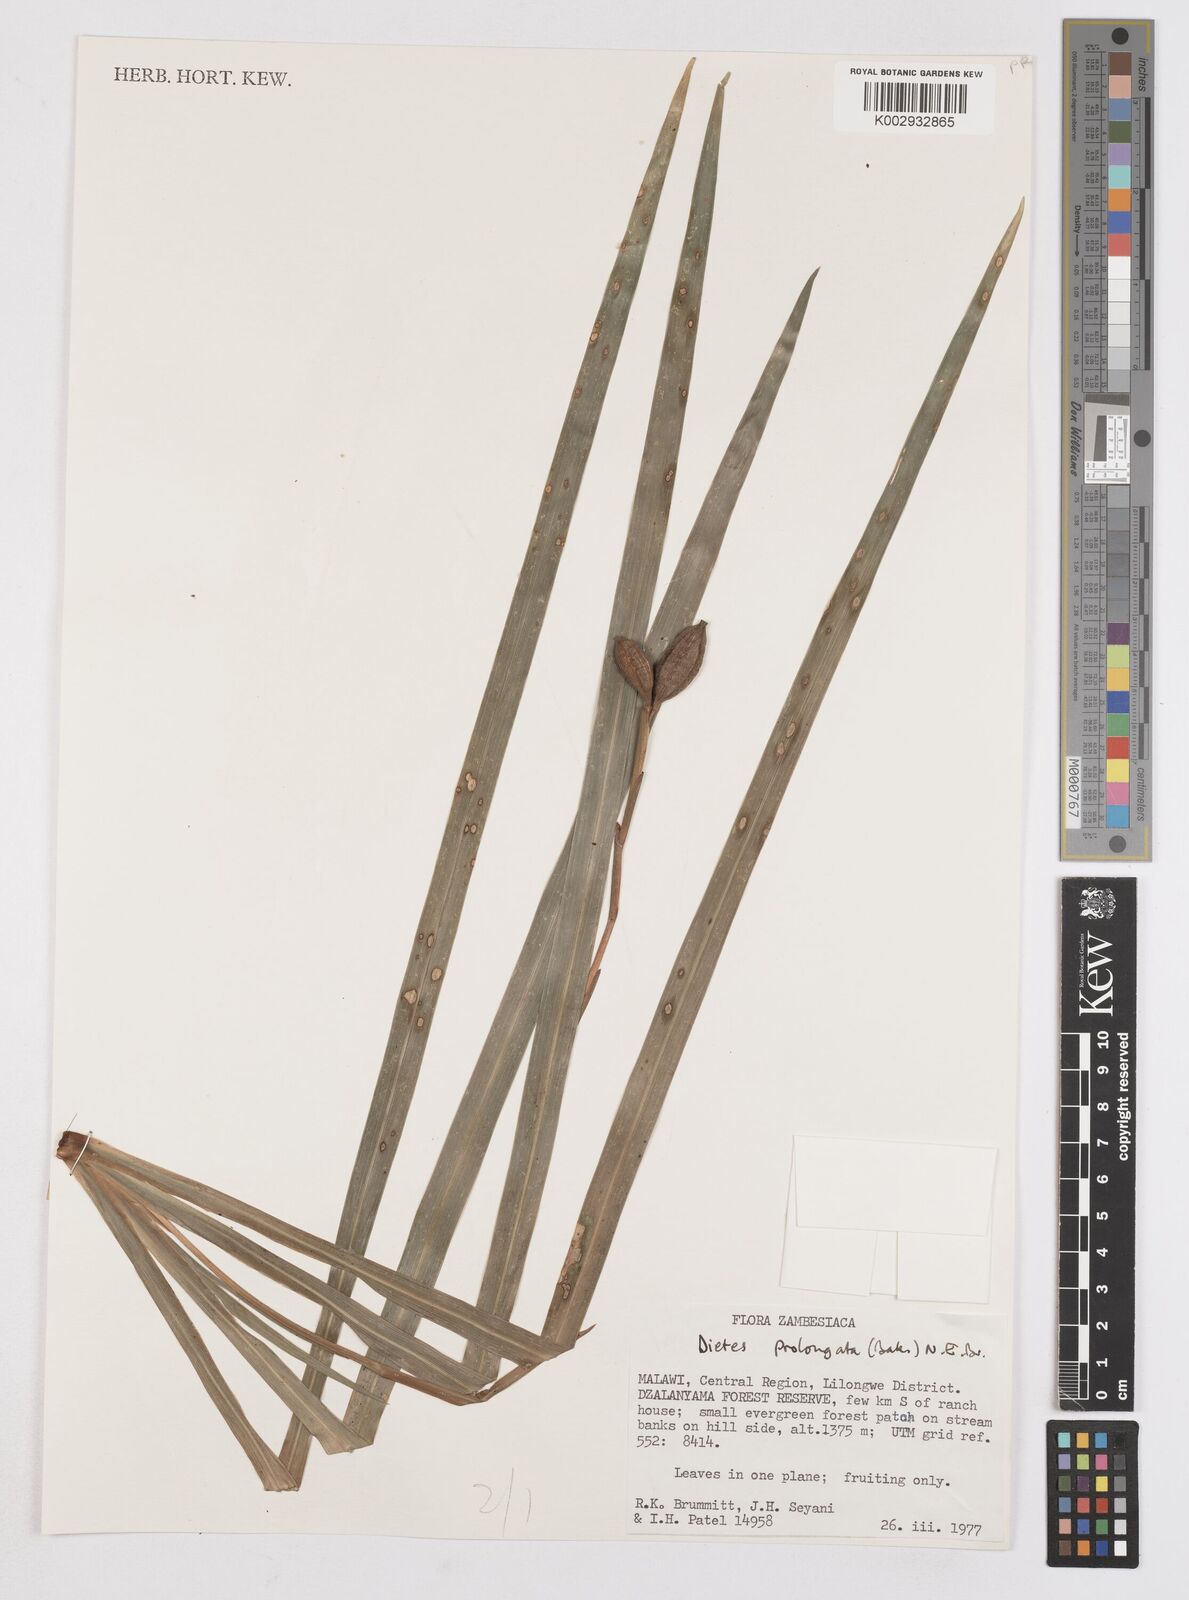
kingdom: Plantae
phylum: Tracheophyta
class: Liliopsida
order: Asparagales
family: Iridaceae
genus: Dietes
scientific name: Dietes iridioides
